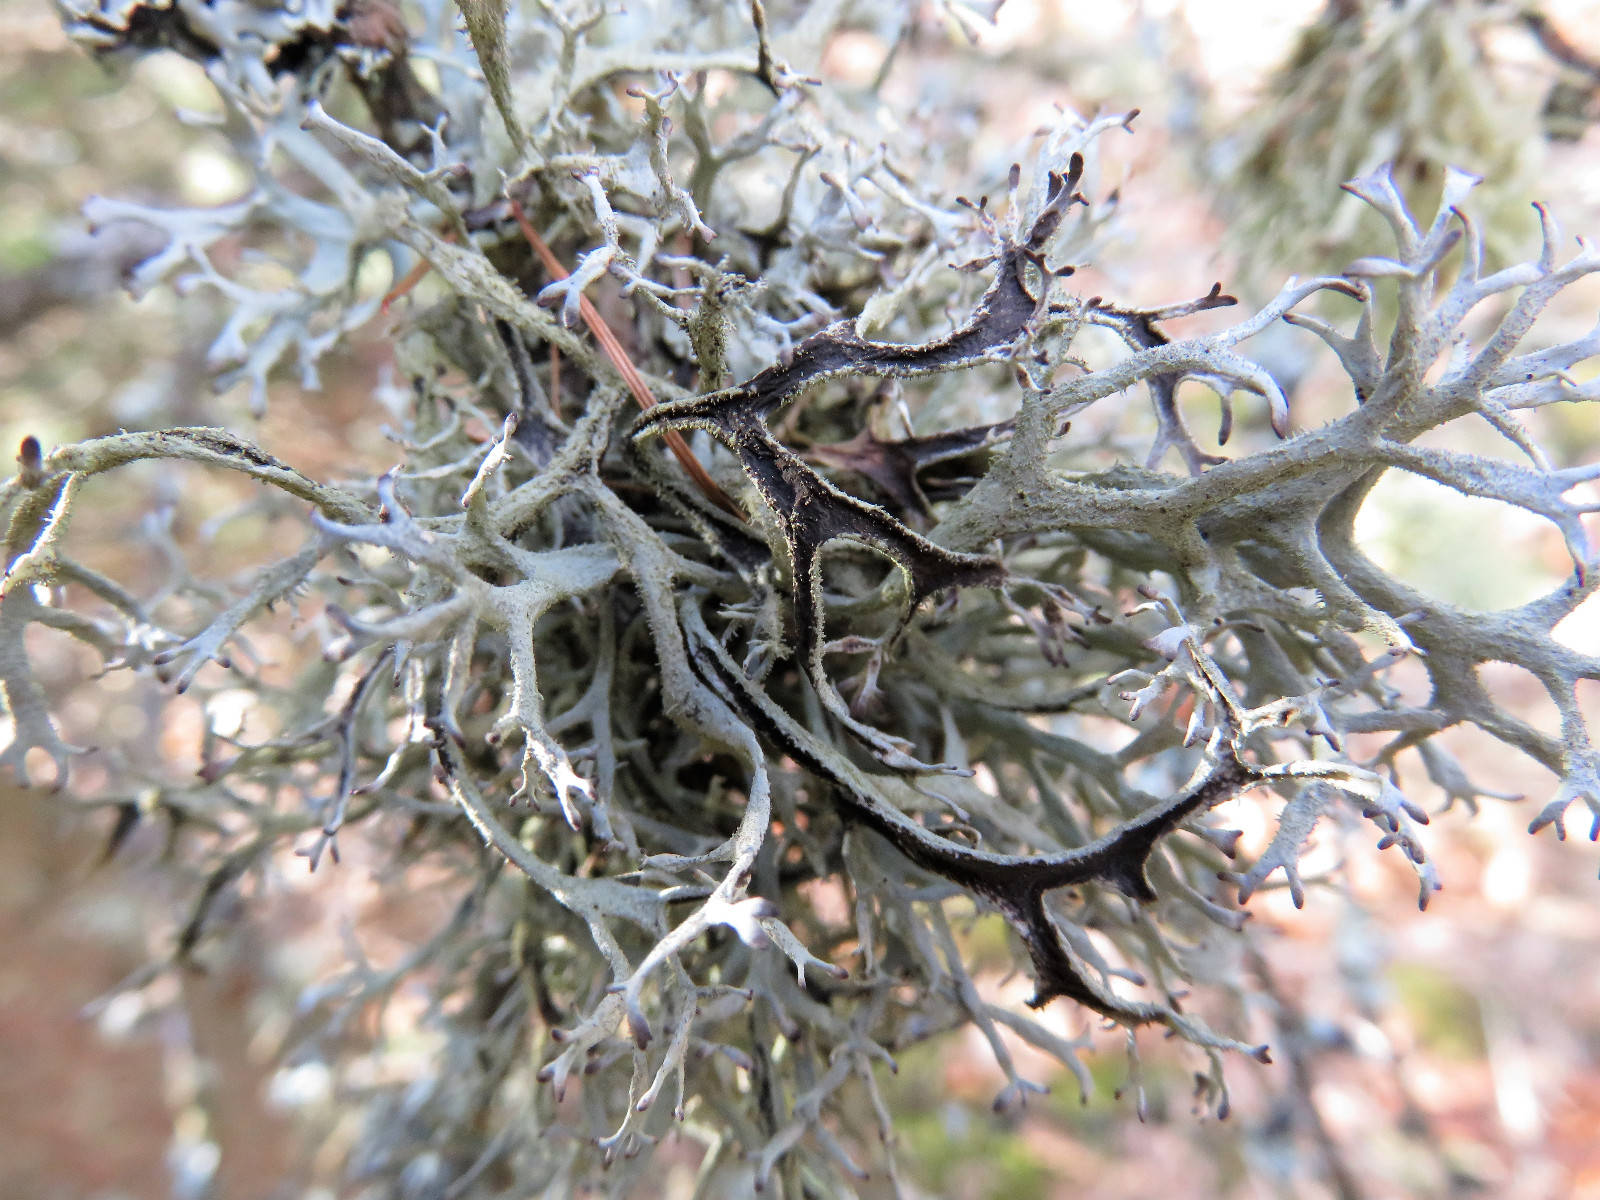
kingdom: Fungi
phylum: Ascomycota
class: Lecanoromycetes
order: Lecanorales
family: Parmeliaceae
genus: Pseudevernia
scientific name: Pseudevernia furfuracea
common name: grå fyrrelav
